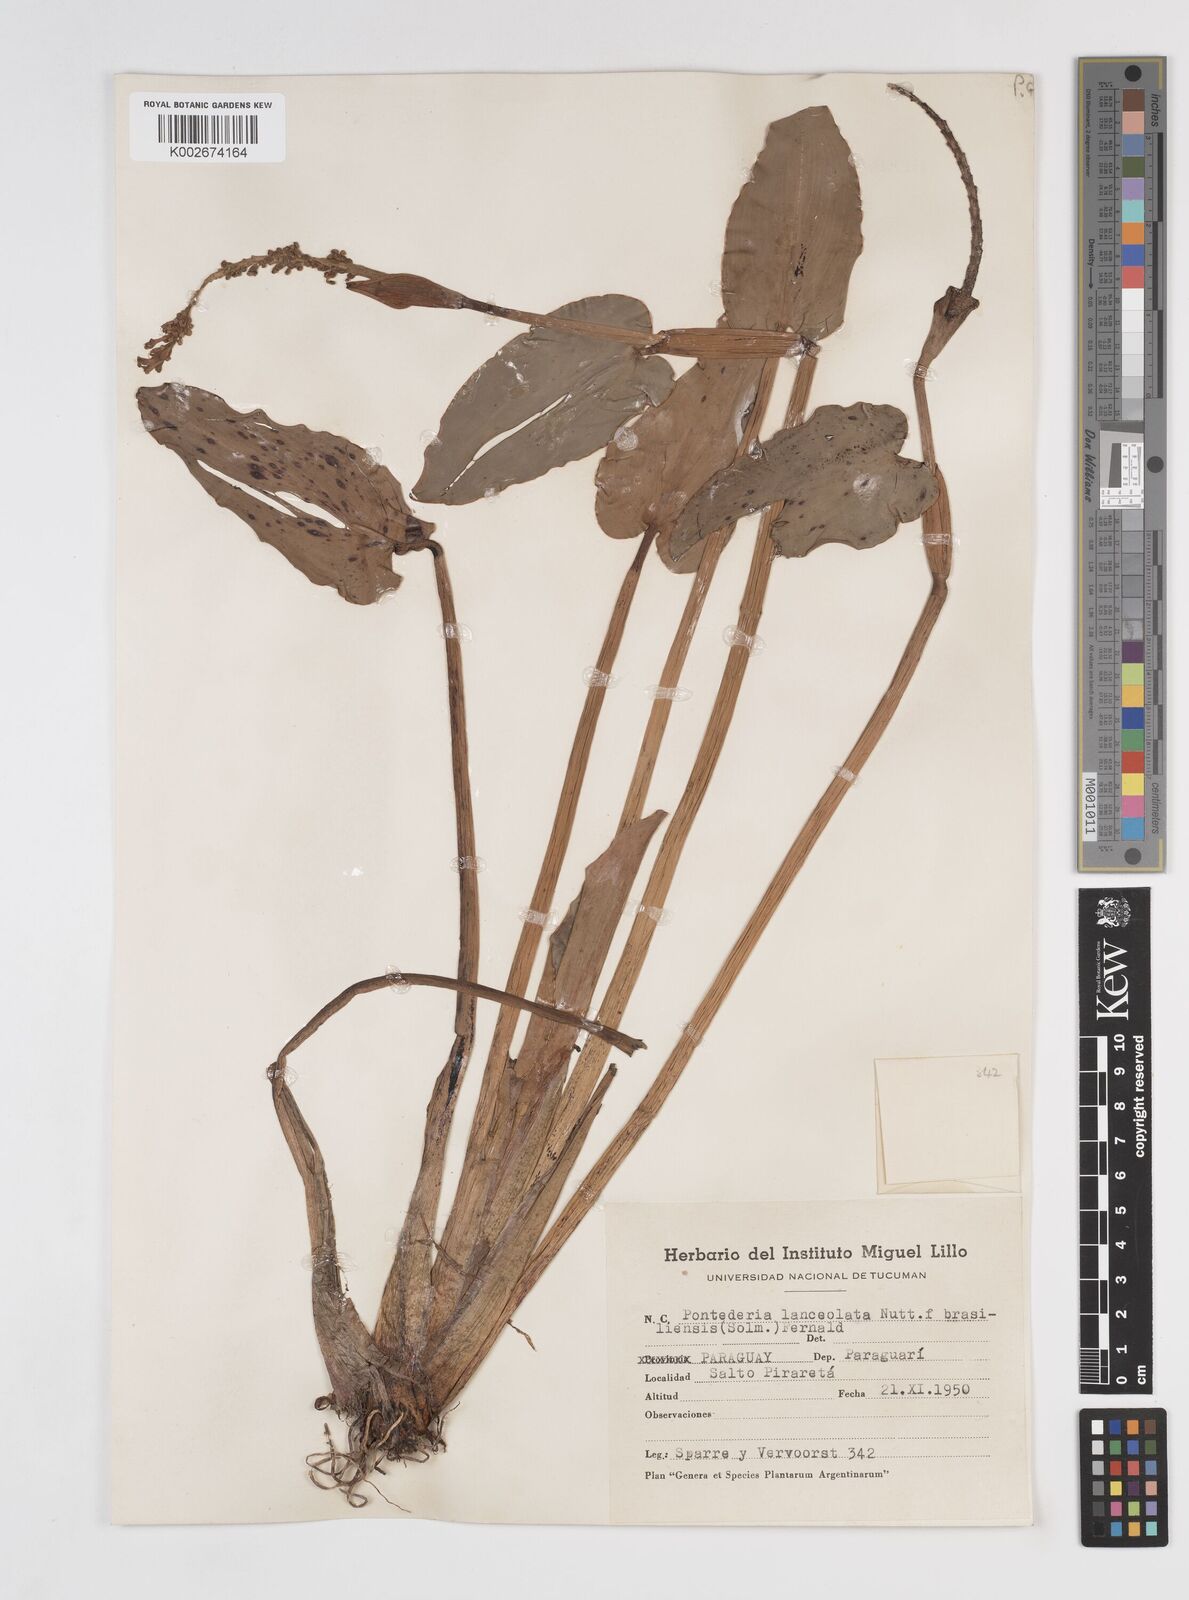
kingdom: Plantae
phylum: Tracheophyta
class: Liliopsida
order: Commelinales
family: Pontederiaceae
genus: Pontederia
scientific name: Pontederia
